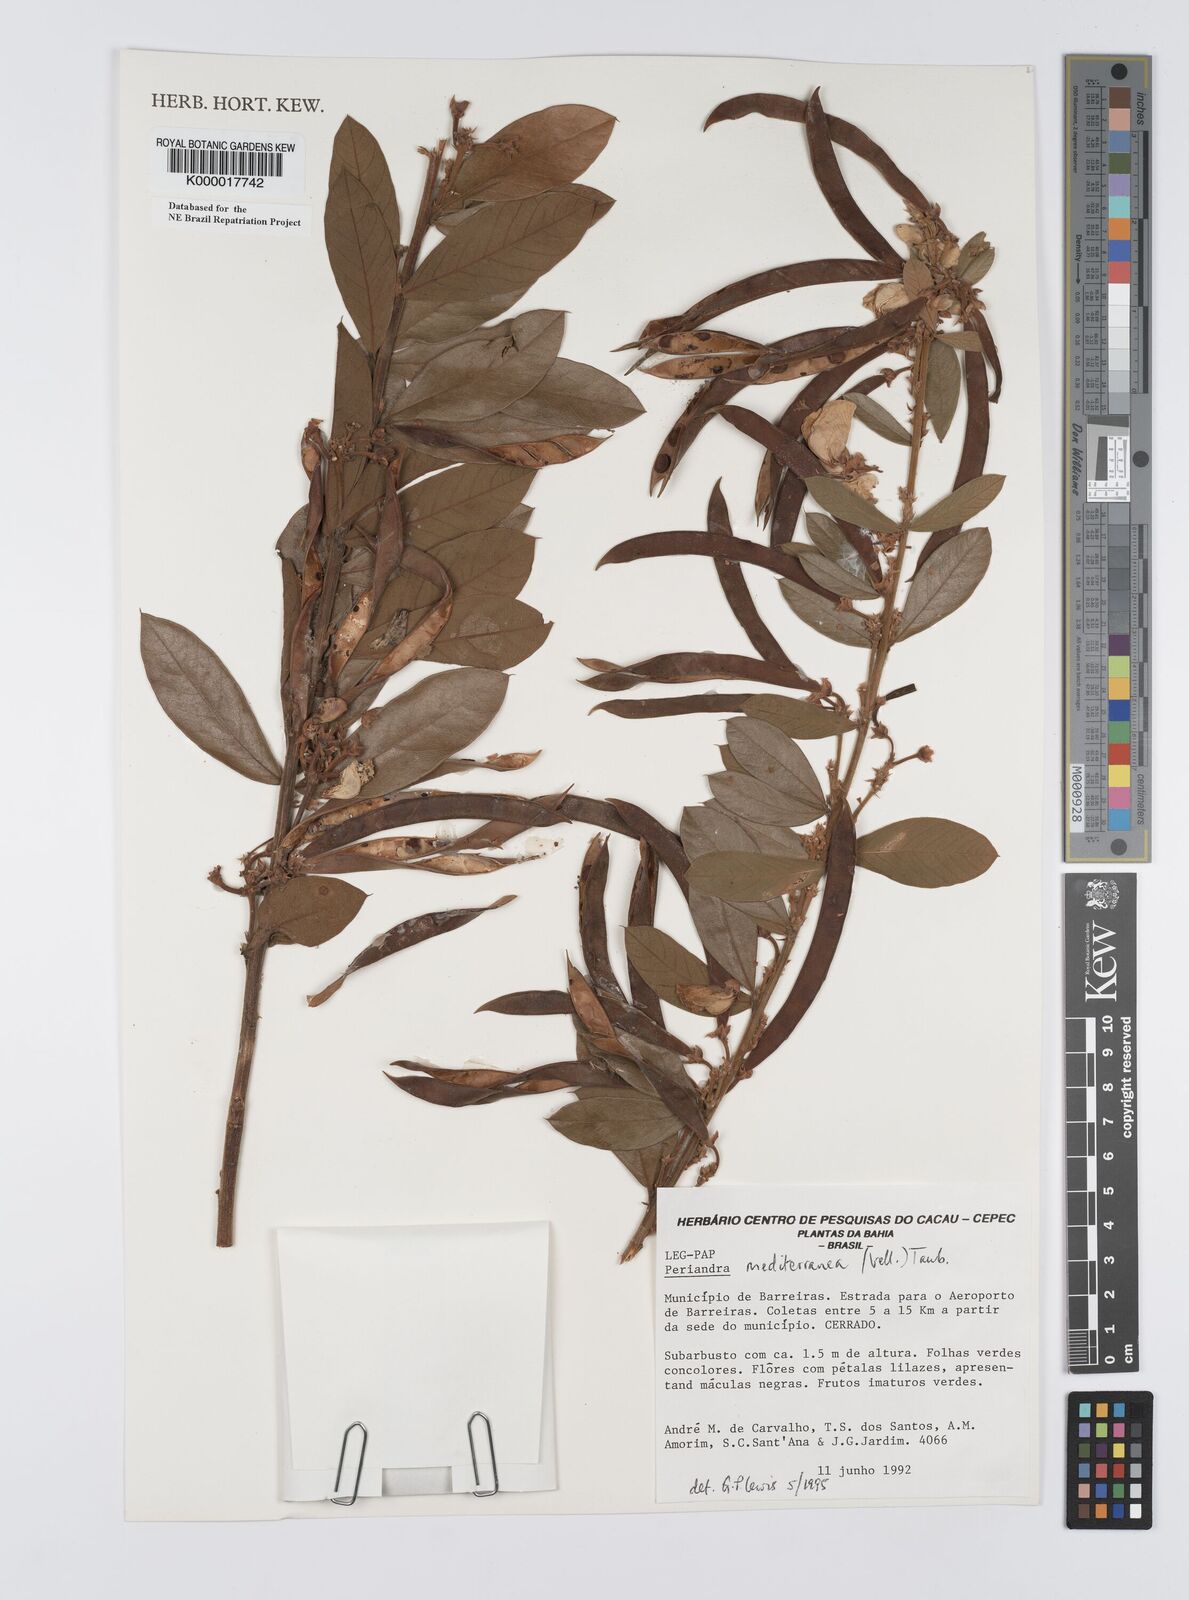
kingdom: Plantae
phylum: Tracheophyta
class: Magnoliopsida
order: Fabales
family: Fabaceae
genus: Periandra
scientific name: Periandra mediterranea
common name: Brazilian licorice
